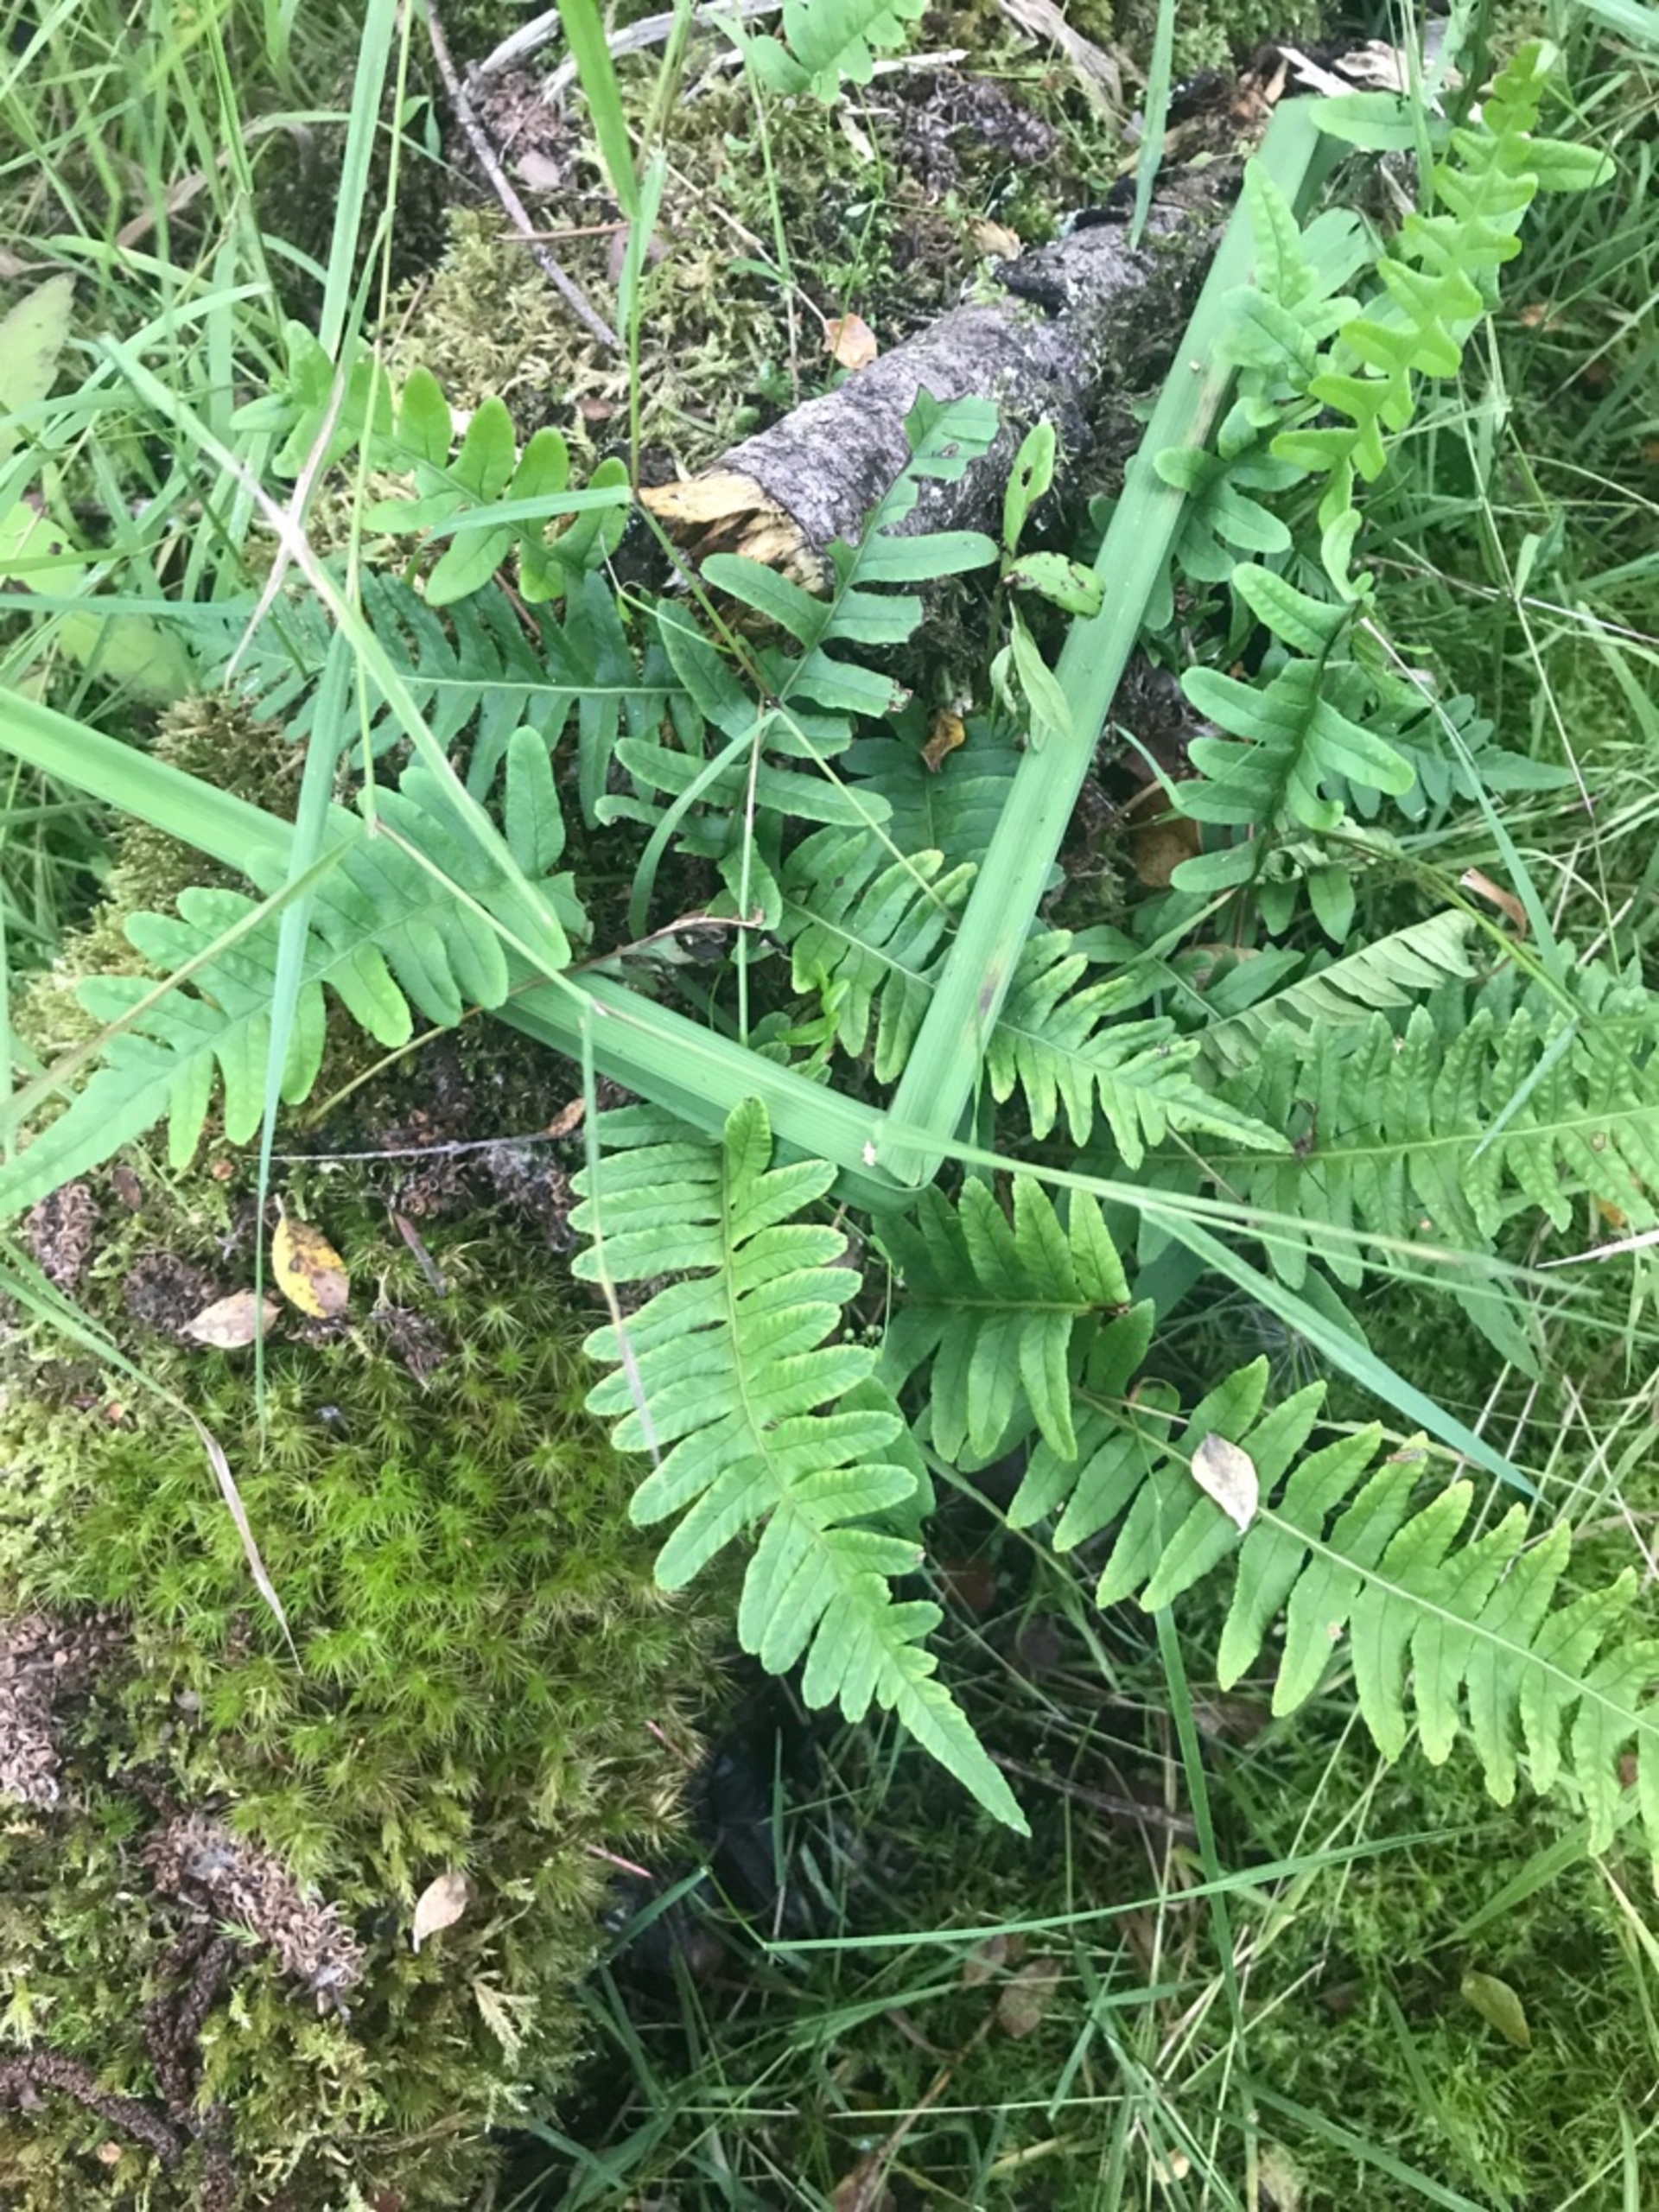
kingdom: Plantae
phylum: Tracheophyta
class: Polypodiopsida
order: Polypodiales
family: Polypodiaceae
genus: Polypodium
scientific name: Polypodium vulgare
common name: Almindelig engelsød
